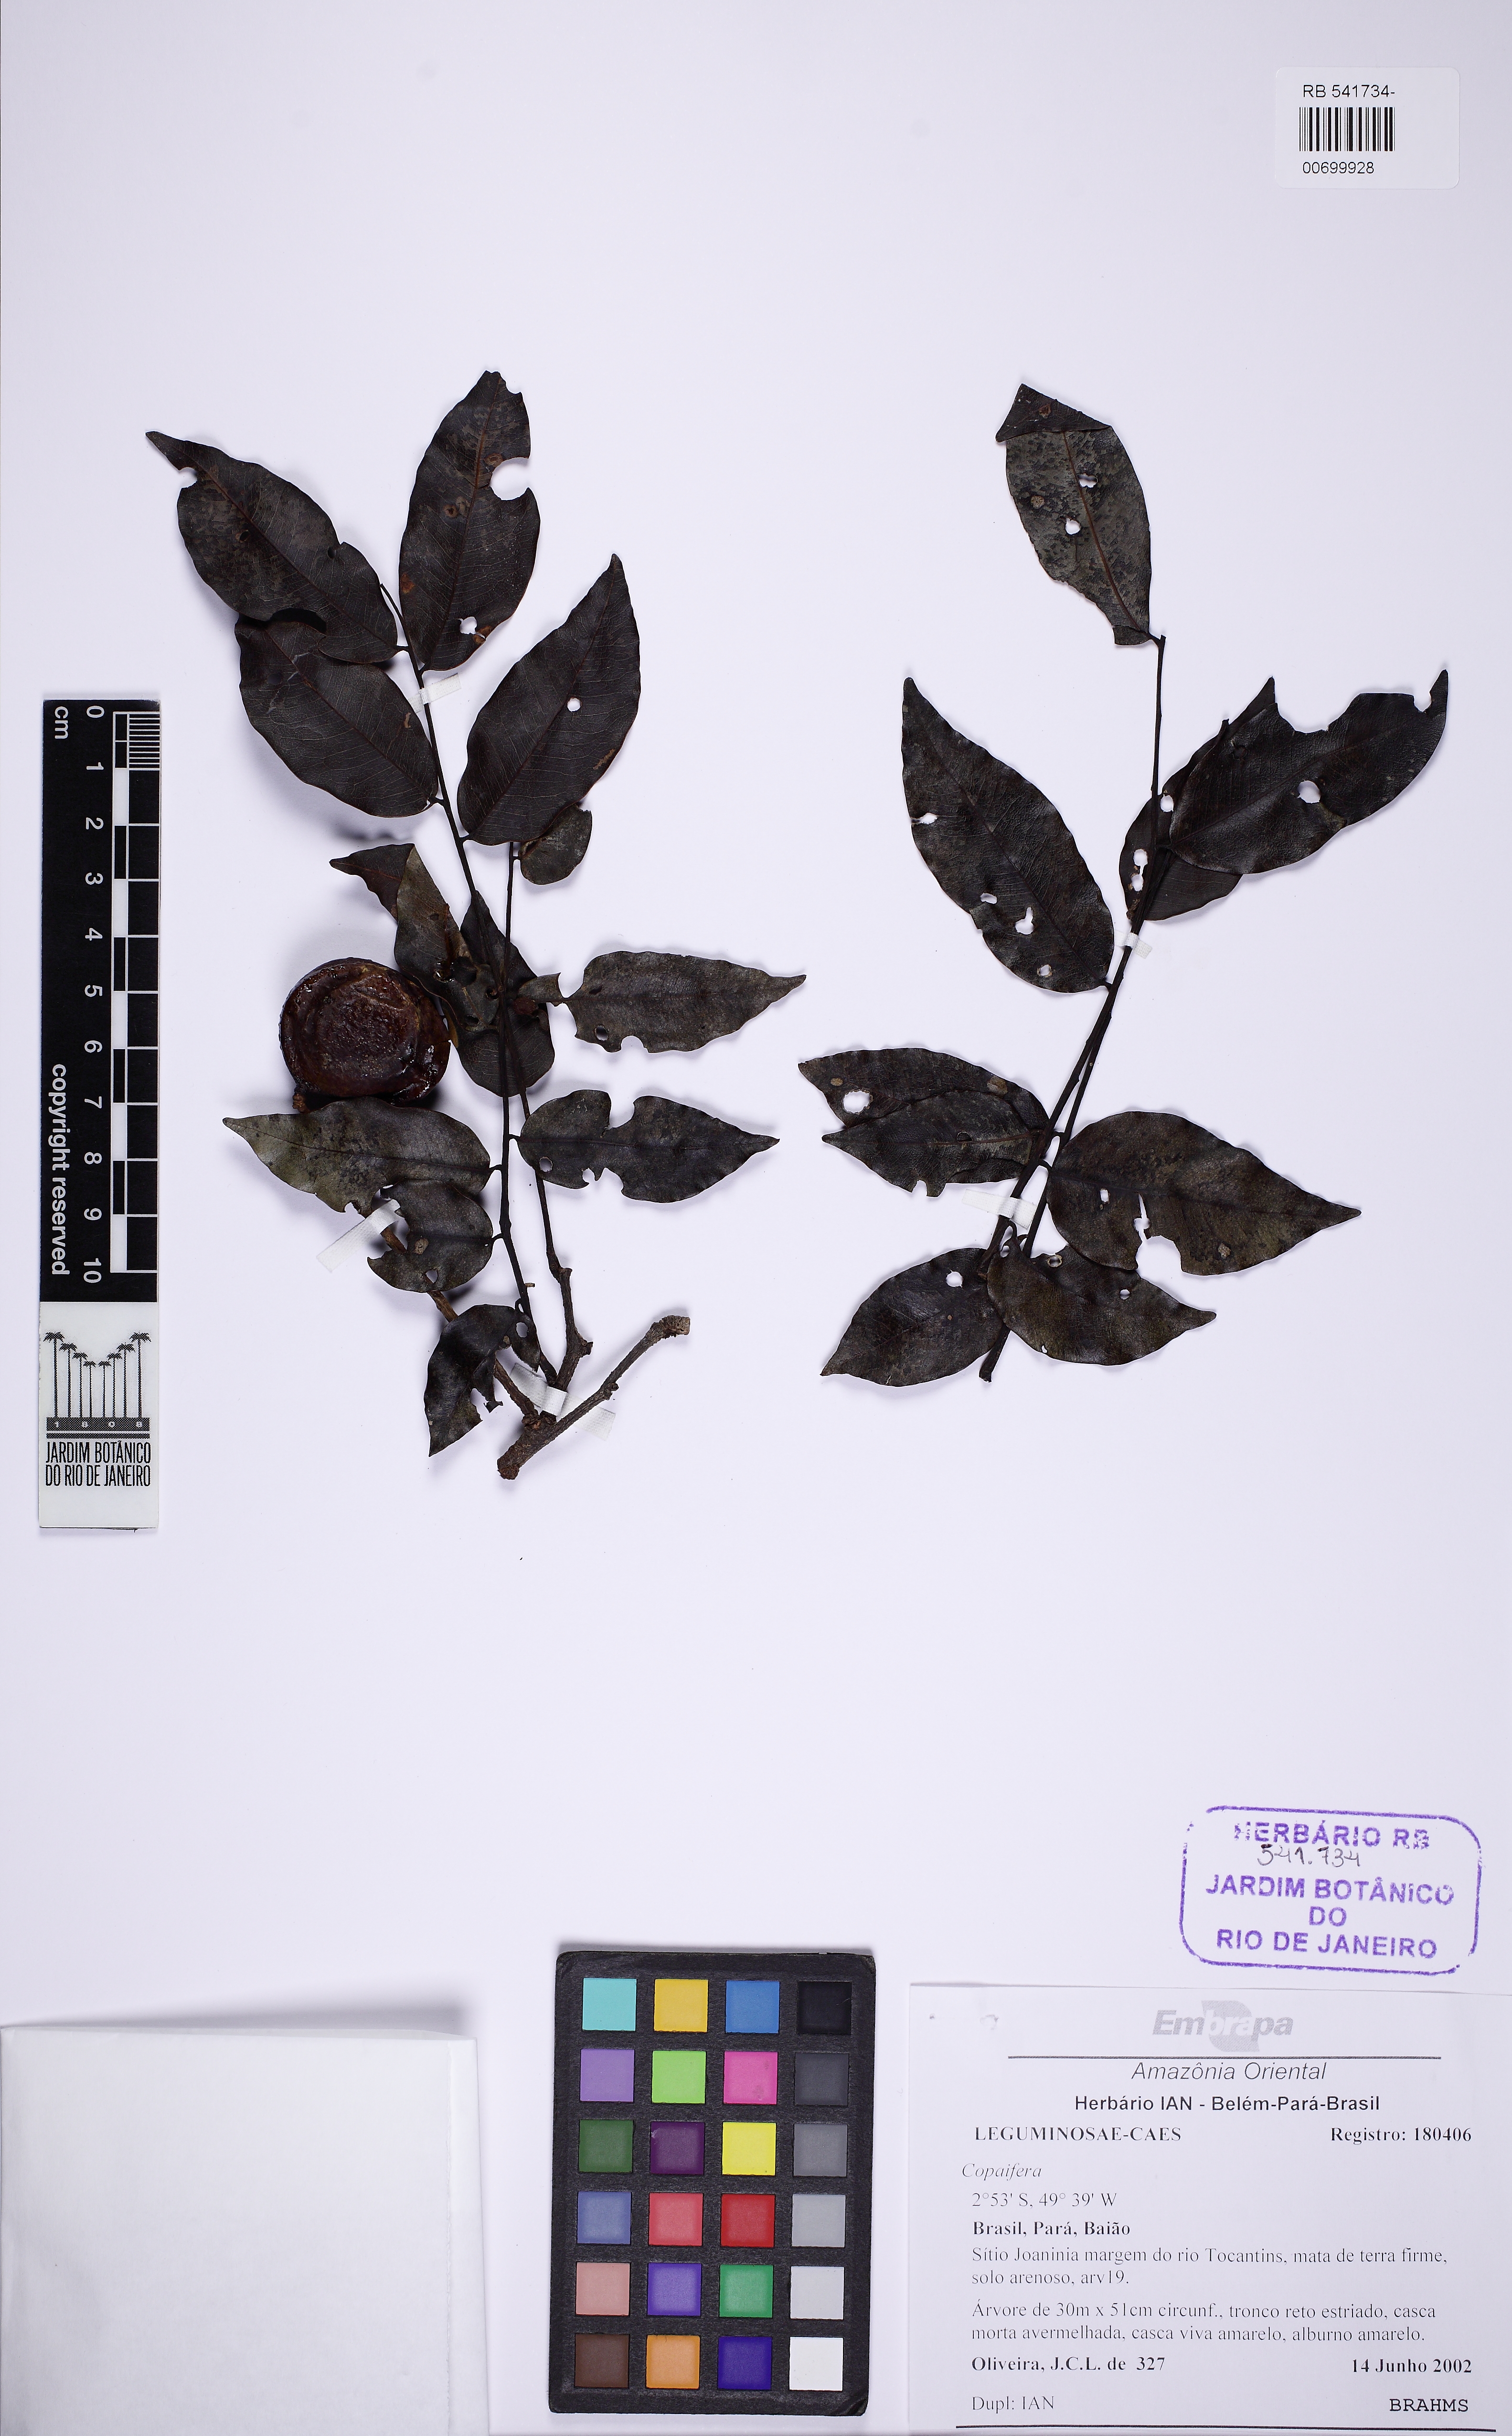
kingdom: Plantae
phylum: Tracheophyta
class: Magnoliopsida
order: Fabales
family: Fabaceae
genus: Copaifera
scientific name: Copaifera
